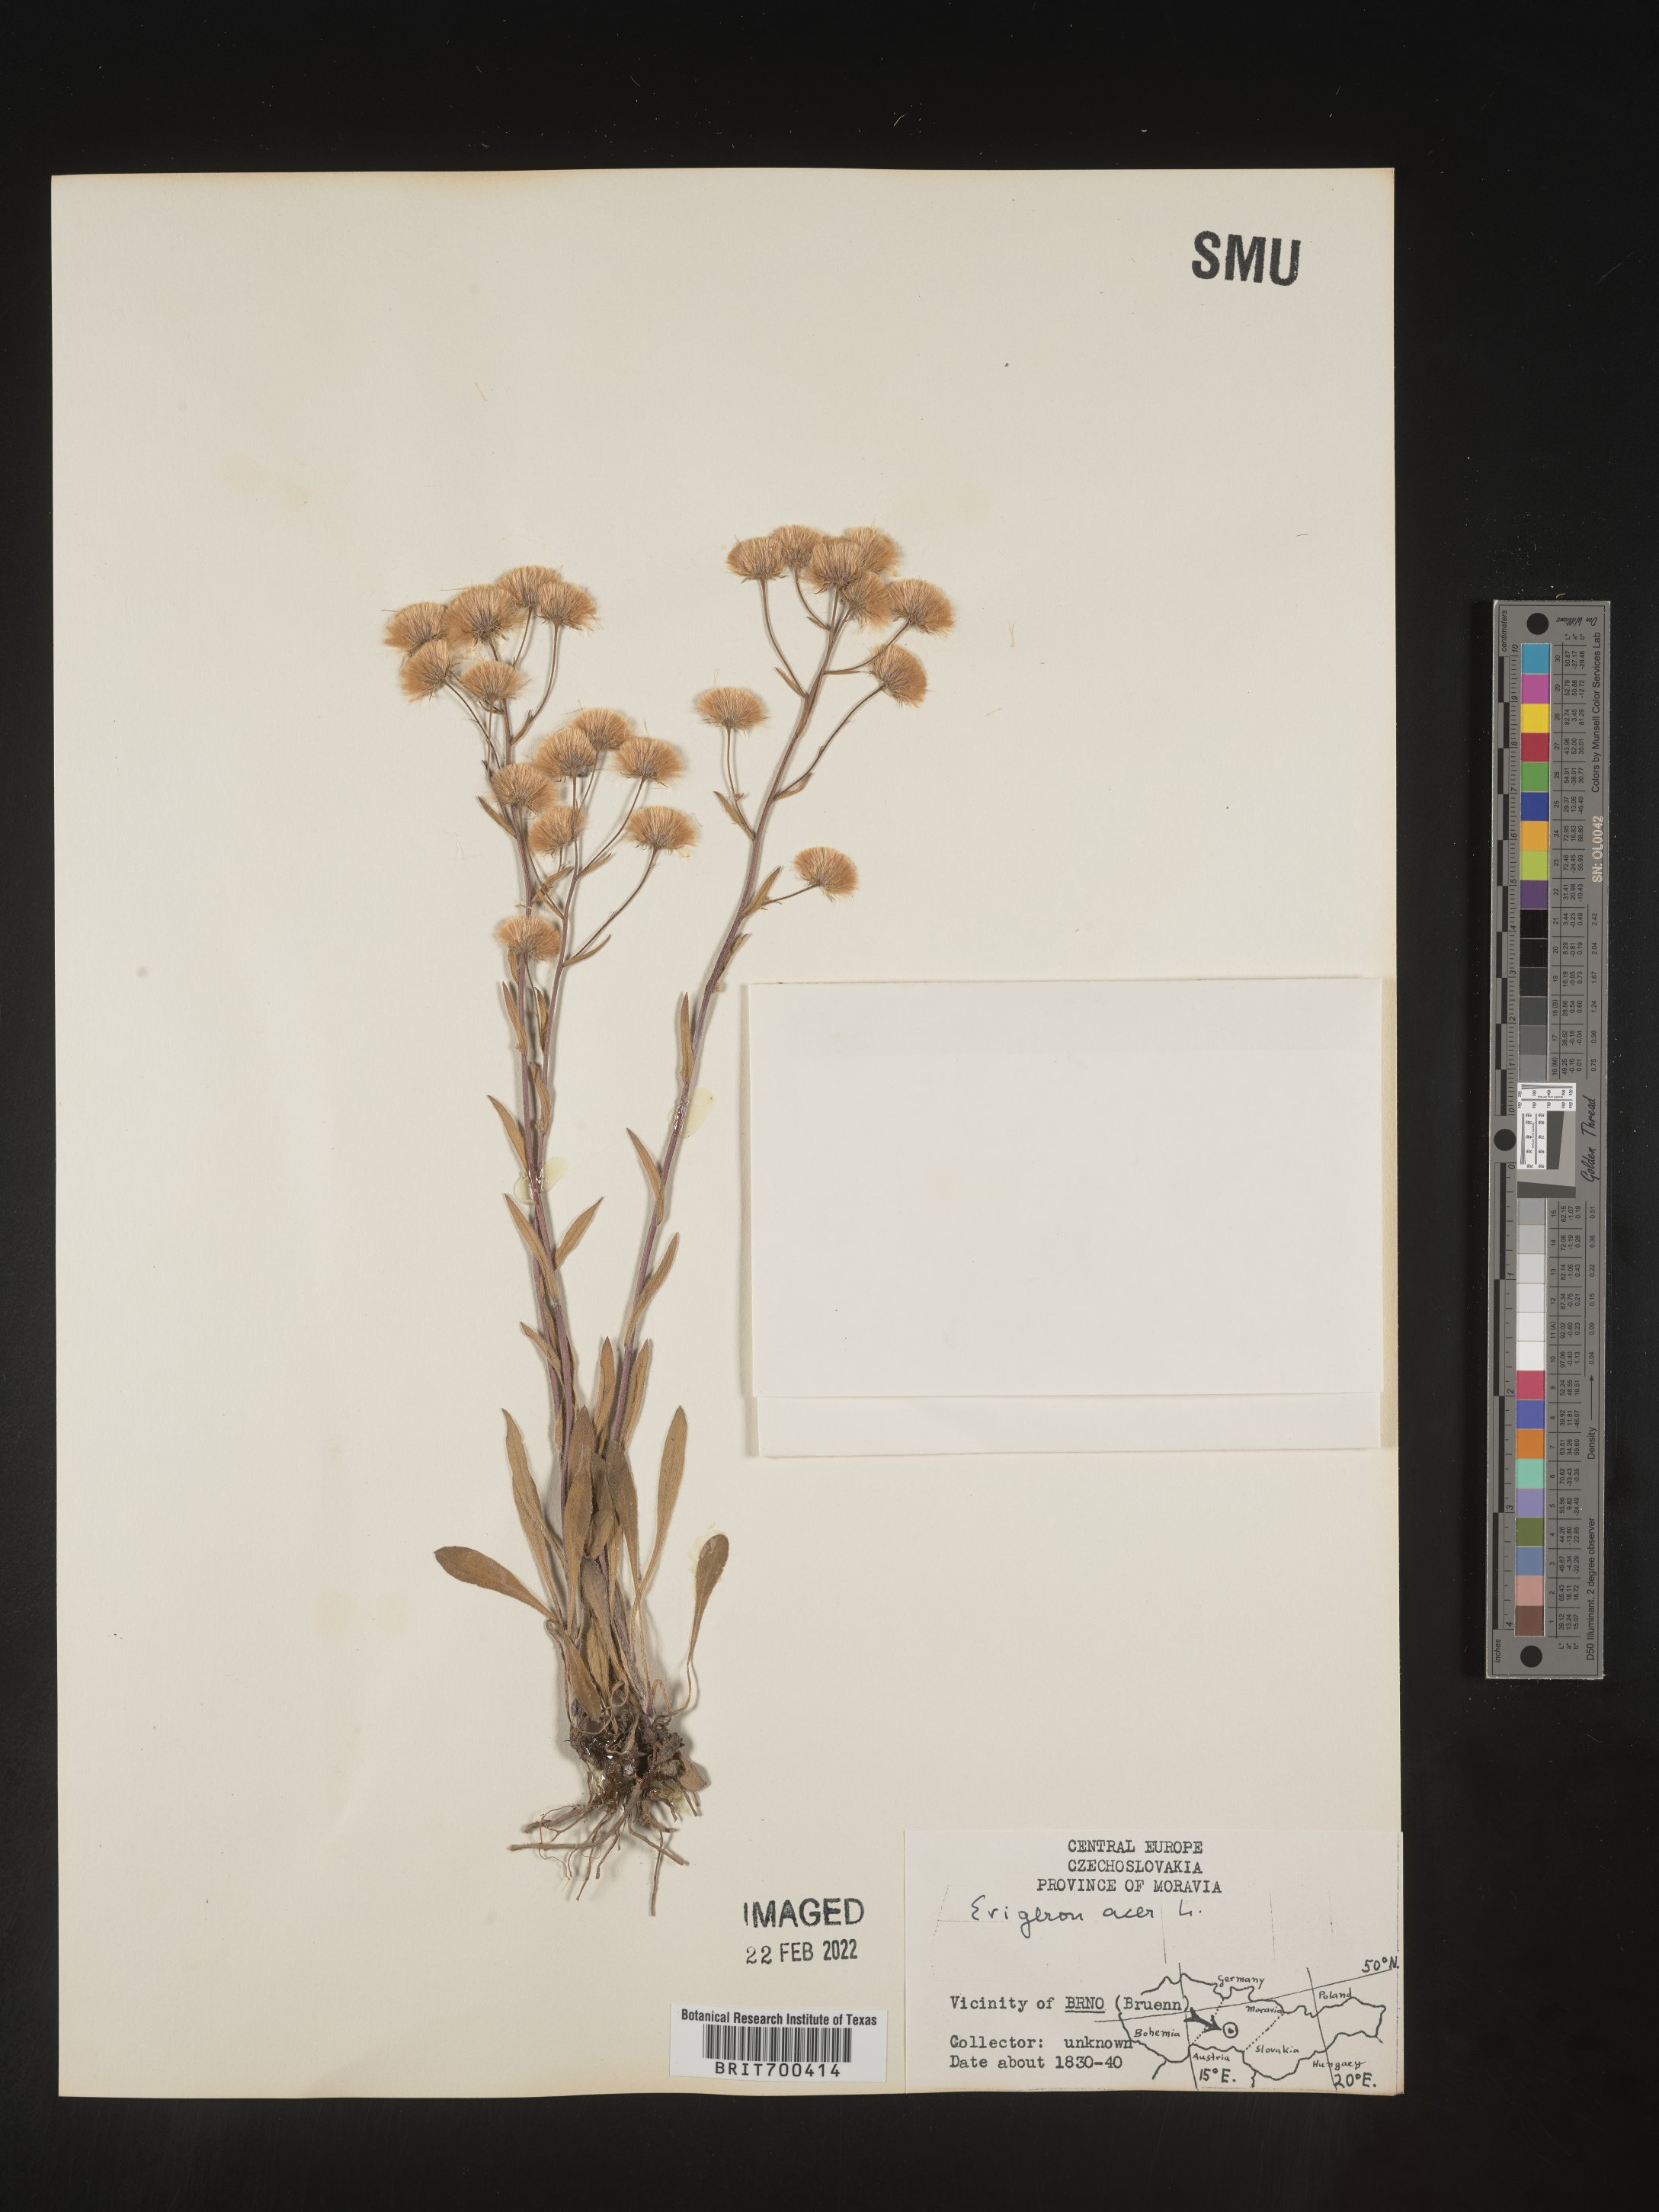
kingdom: Plantae
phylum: Tracheophyta
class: Magnoliopsida
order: Asterales
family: Asteraceae
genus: Erigeron
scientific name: Erigeron
